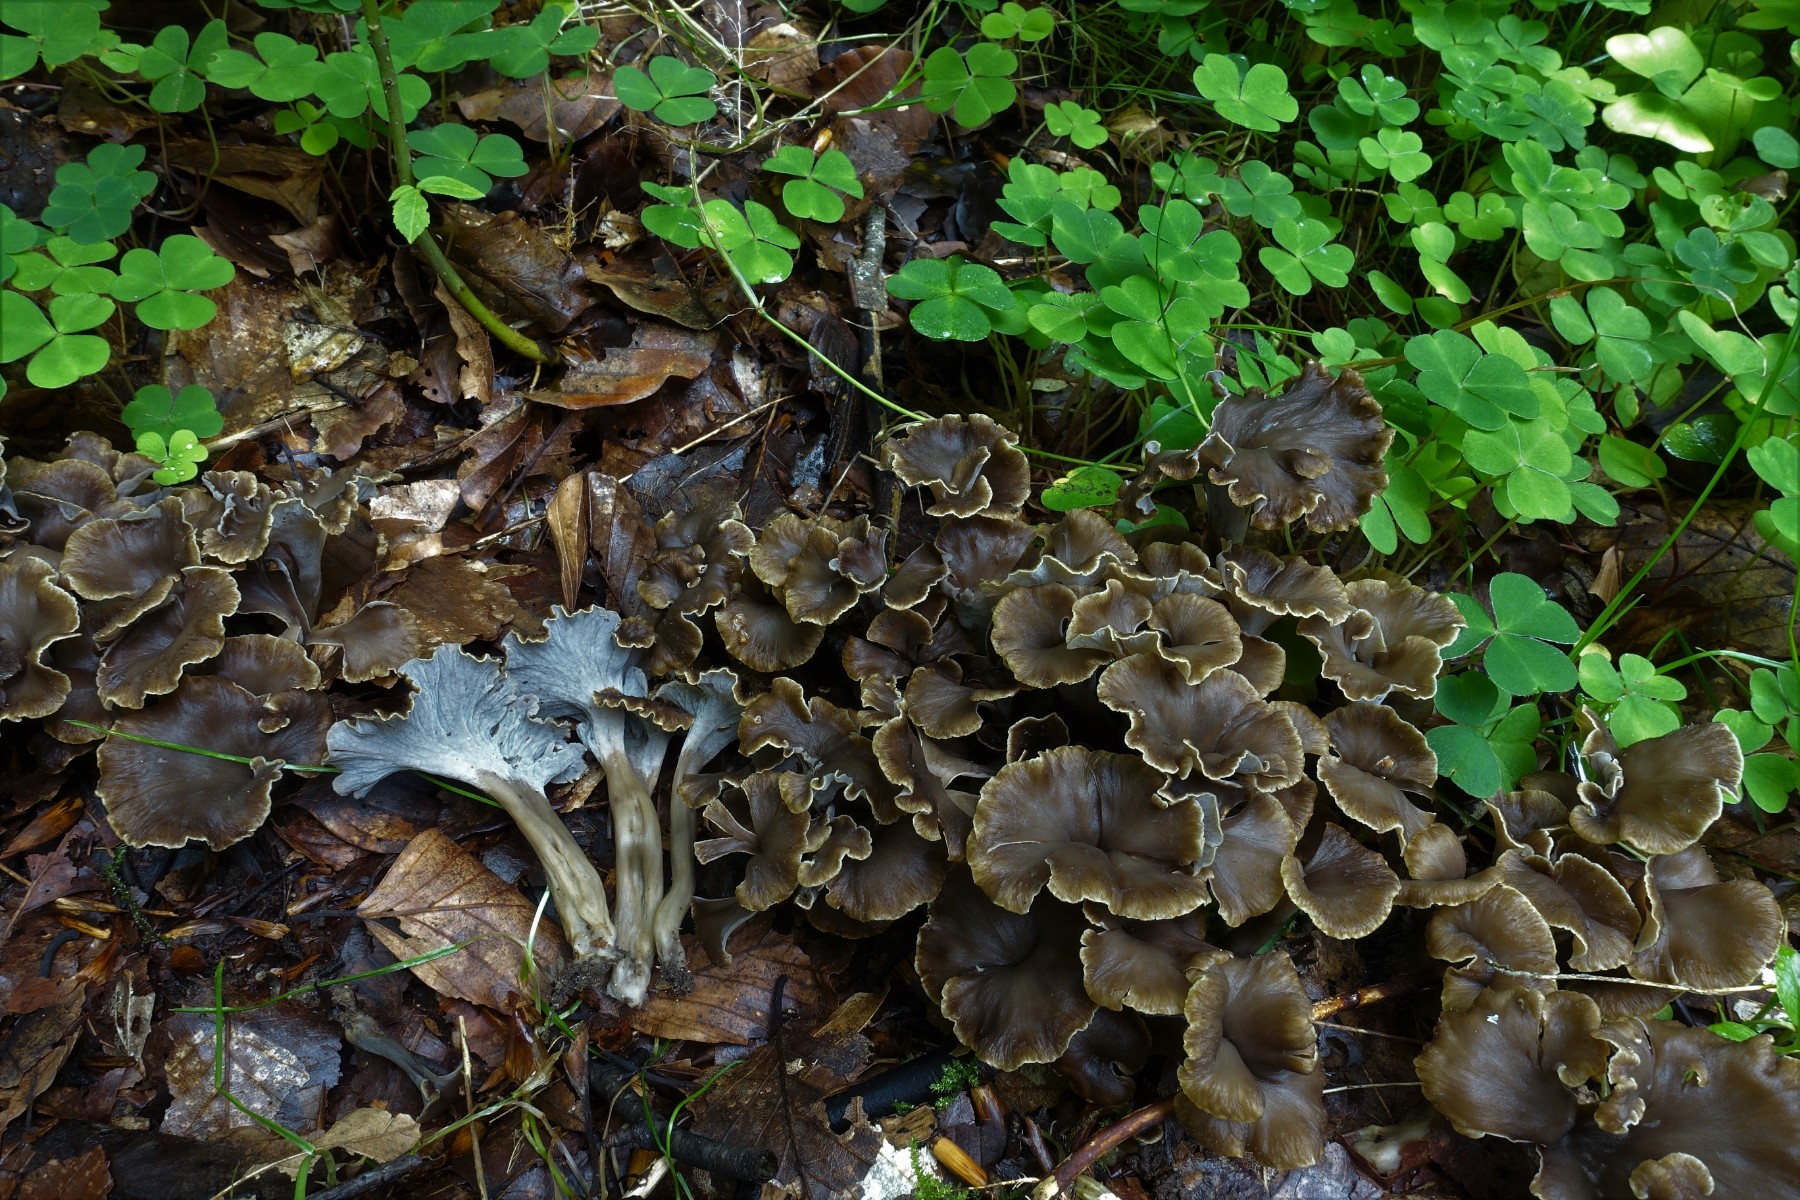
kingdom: Fungi
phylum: Basidiomycota
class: Agaricomycetes
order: Cantharellales
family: Hydnaceae
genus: Craterellus
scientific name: Craterellus undulatus
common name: liden kantarel
